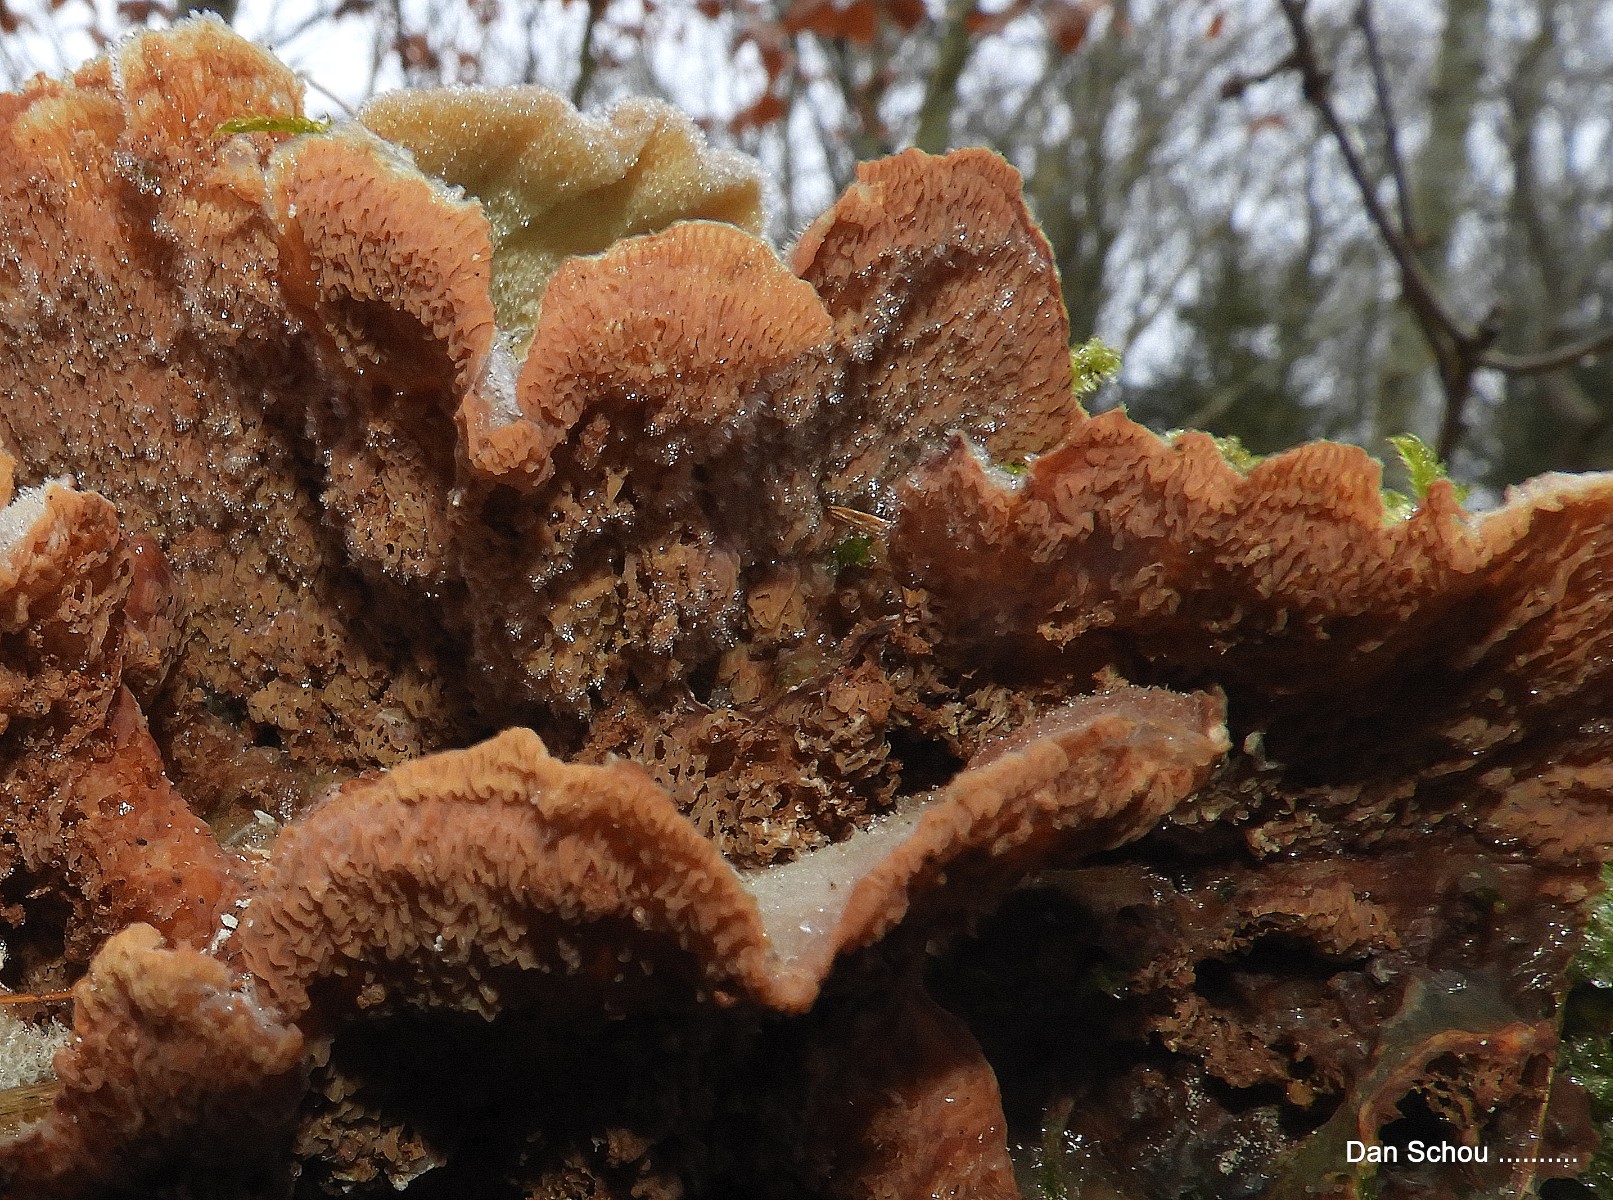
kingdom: Fungi
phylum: Basidiomycota
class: Agaricomycetes
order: Polyporales
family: Meruliaceae
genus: Phlebia
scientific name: Phlebia tremellosa
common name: bævrende åresvamp
